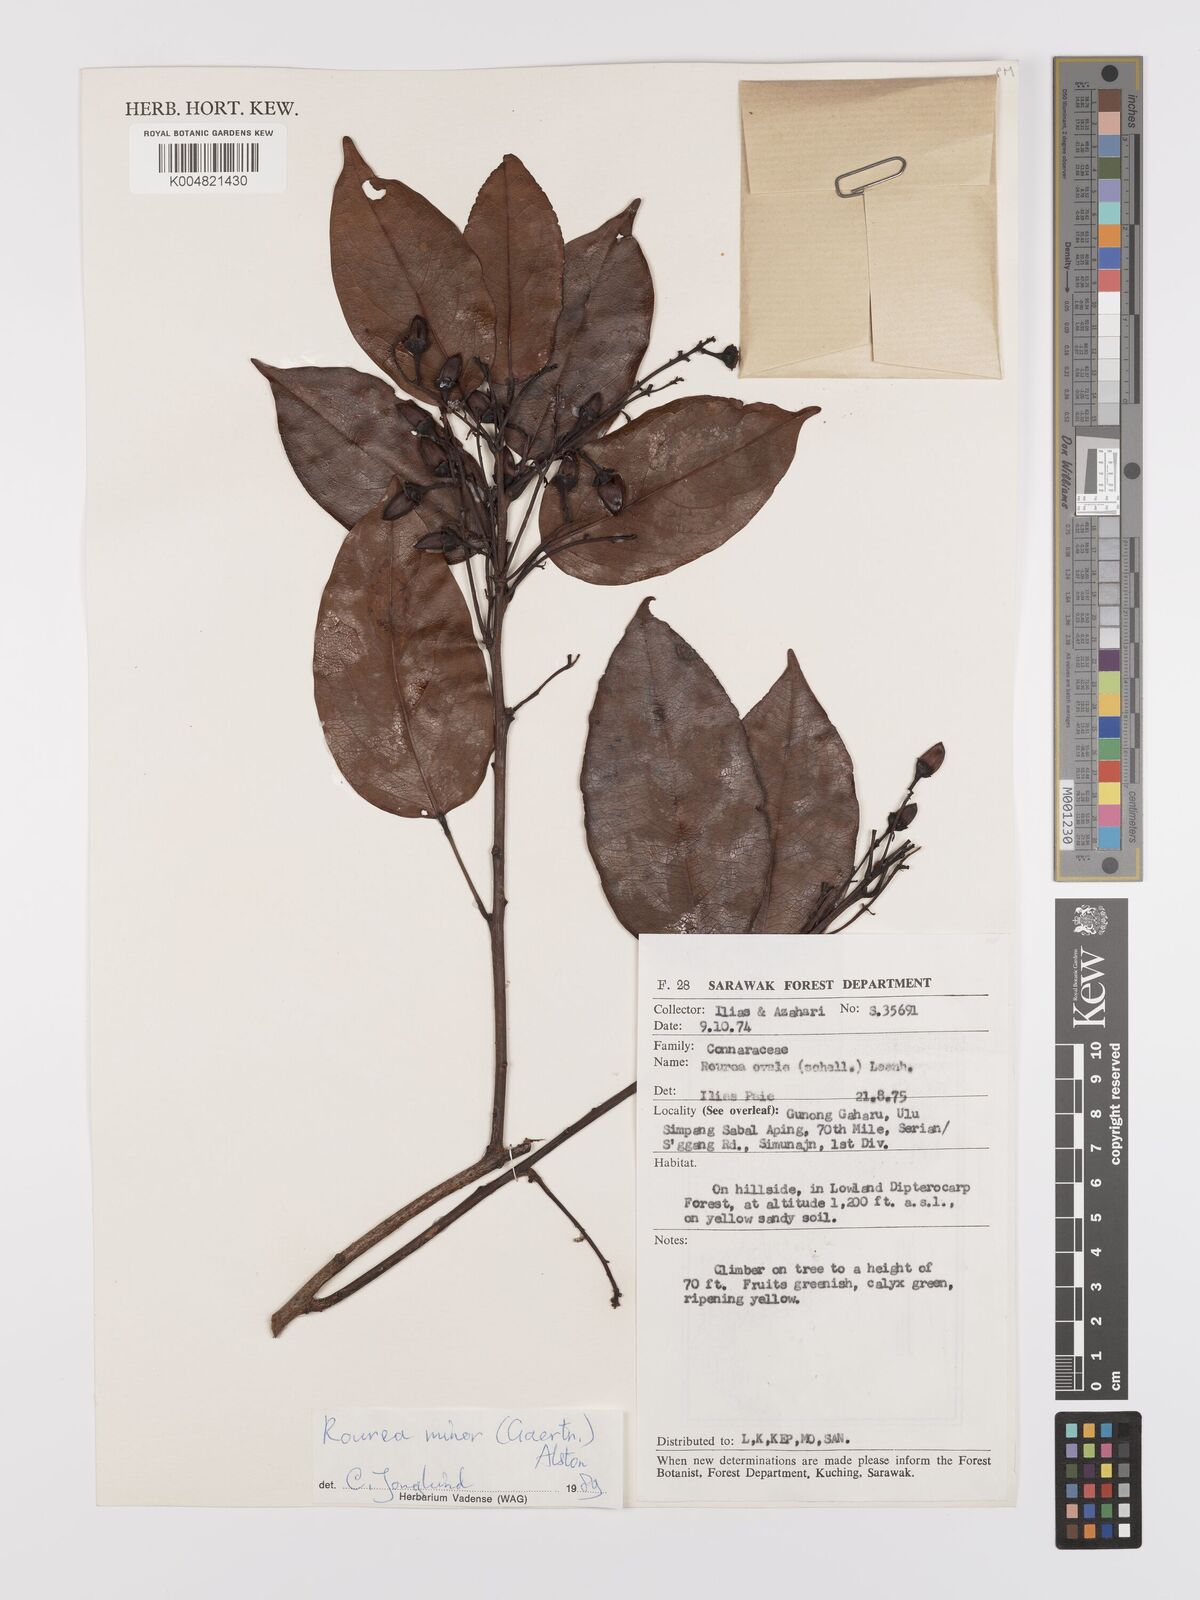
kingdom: Plantae
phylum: Tracheophyta
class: Magnoliopsida
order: Oxalidales
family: Connaraceae
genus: Rourea
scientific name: Rourea ovalis
